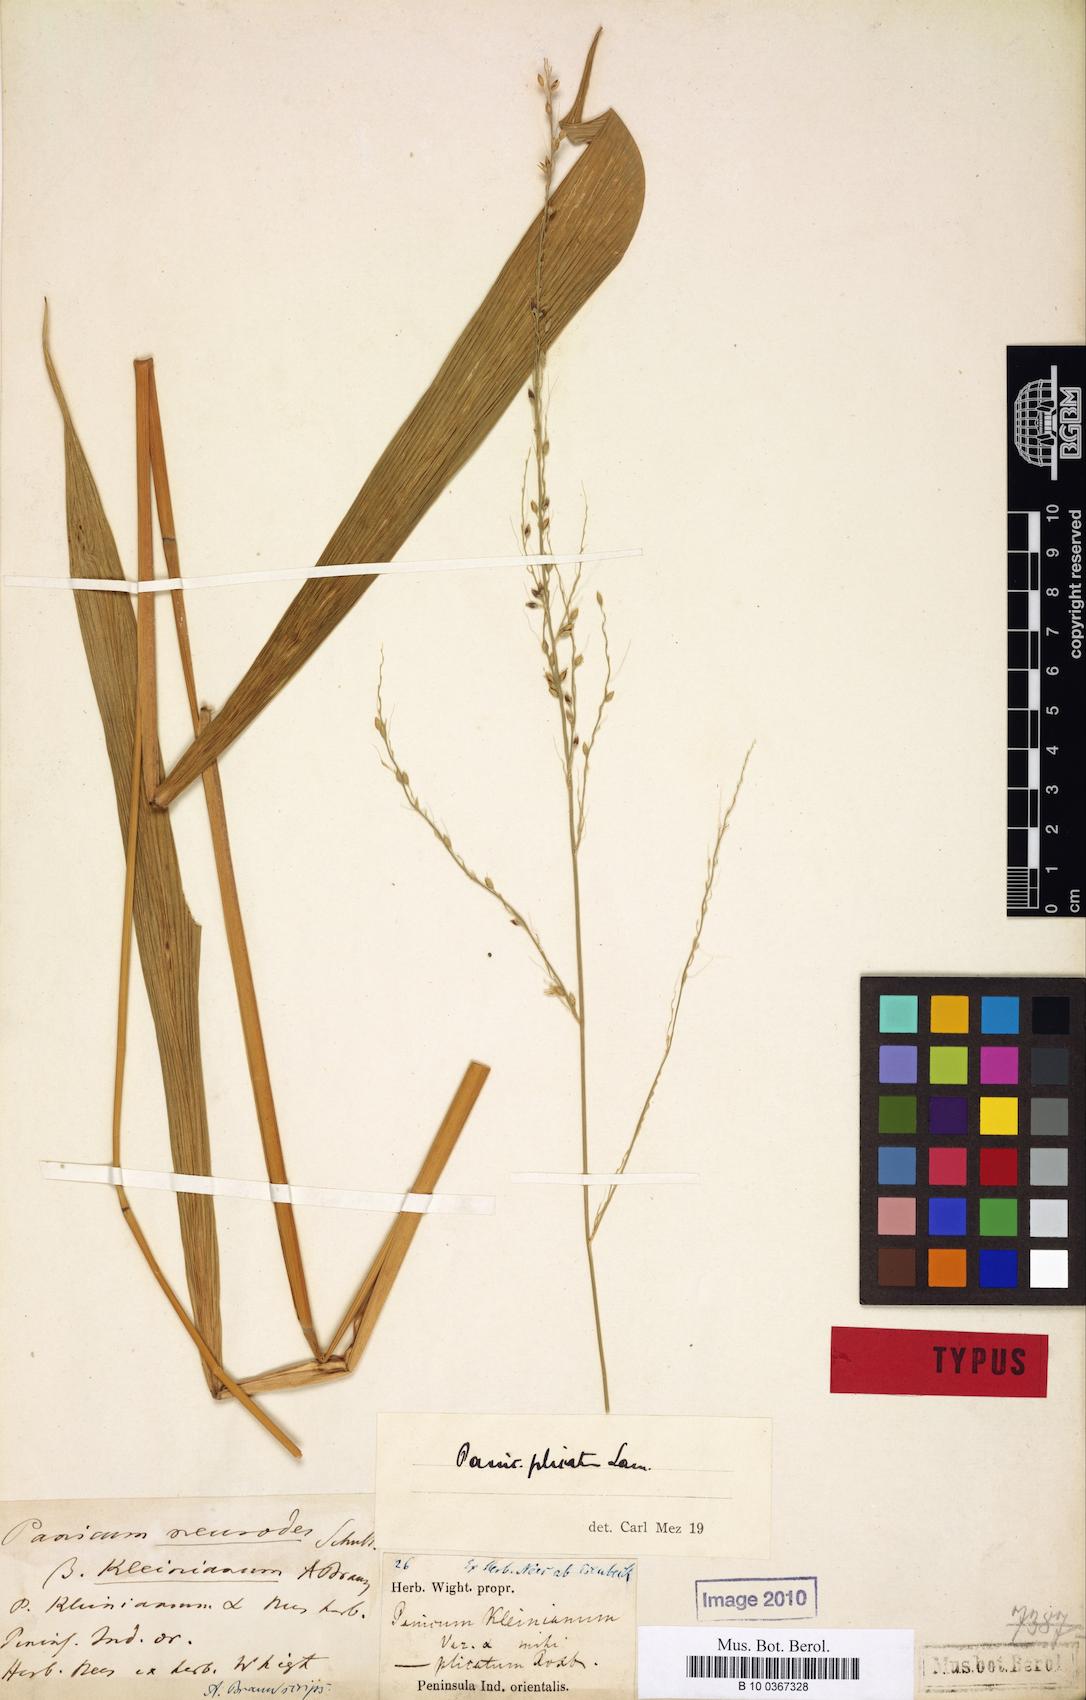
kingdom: Plantae
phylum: Tracheophyta
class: Liliopsida
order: Poales
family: Poaceae
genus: Setaria
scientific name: Setaria palmifolia
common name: Broadleaved bristlegrass
